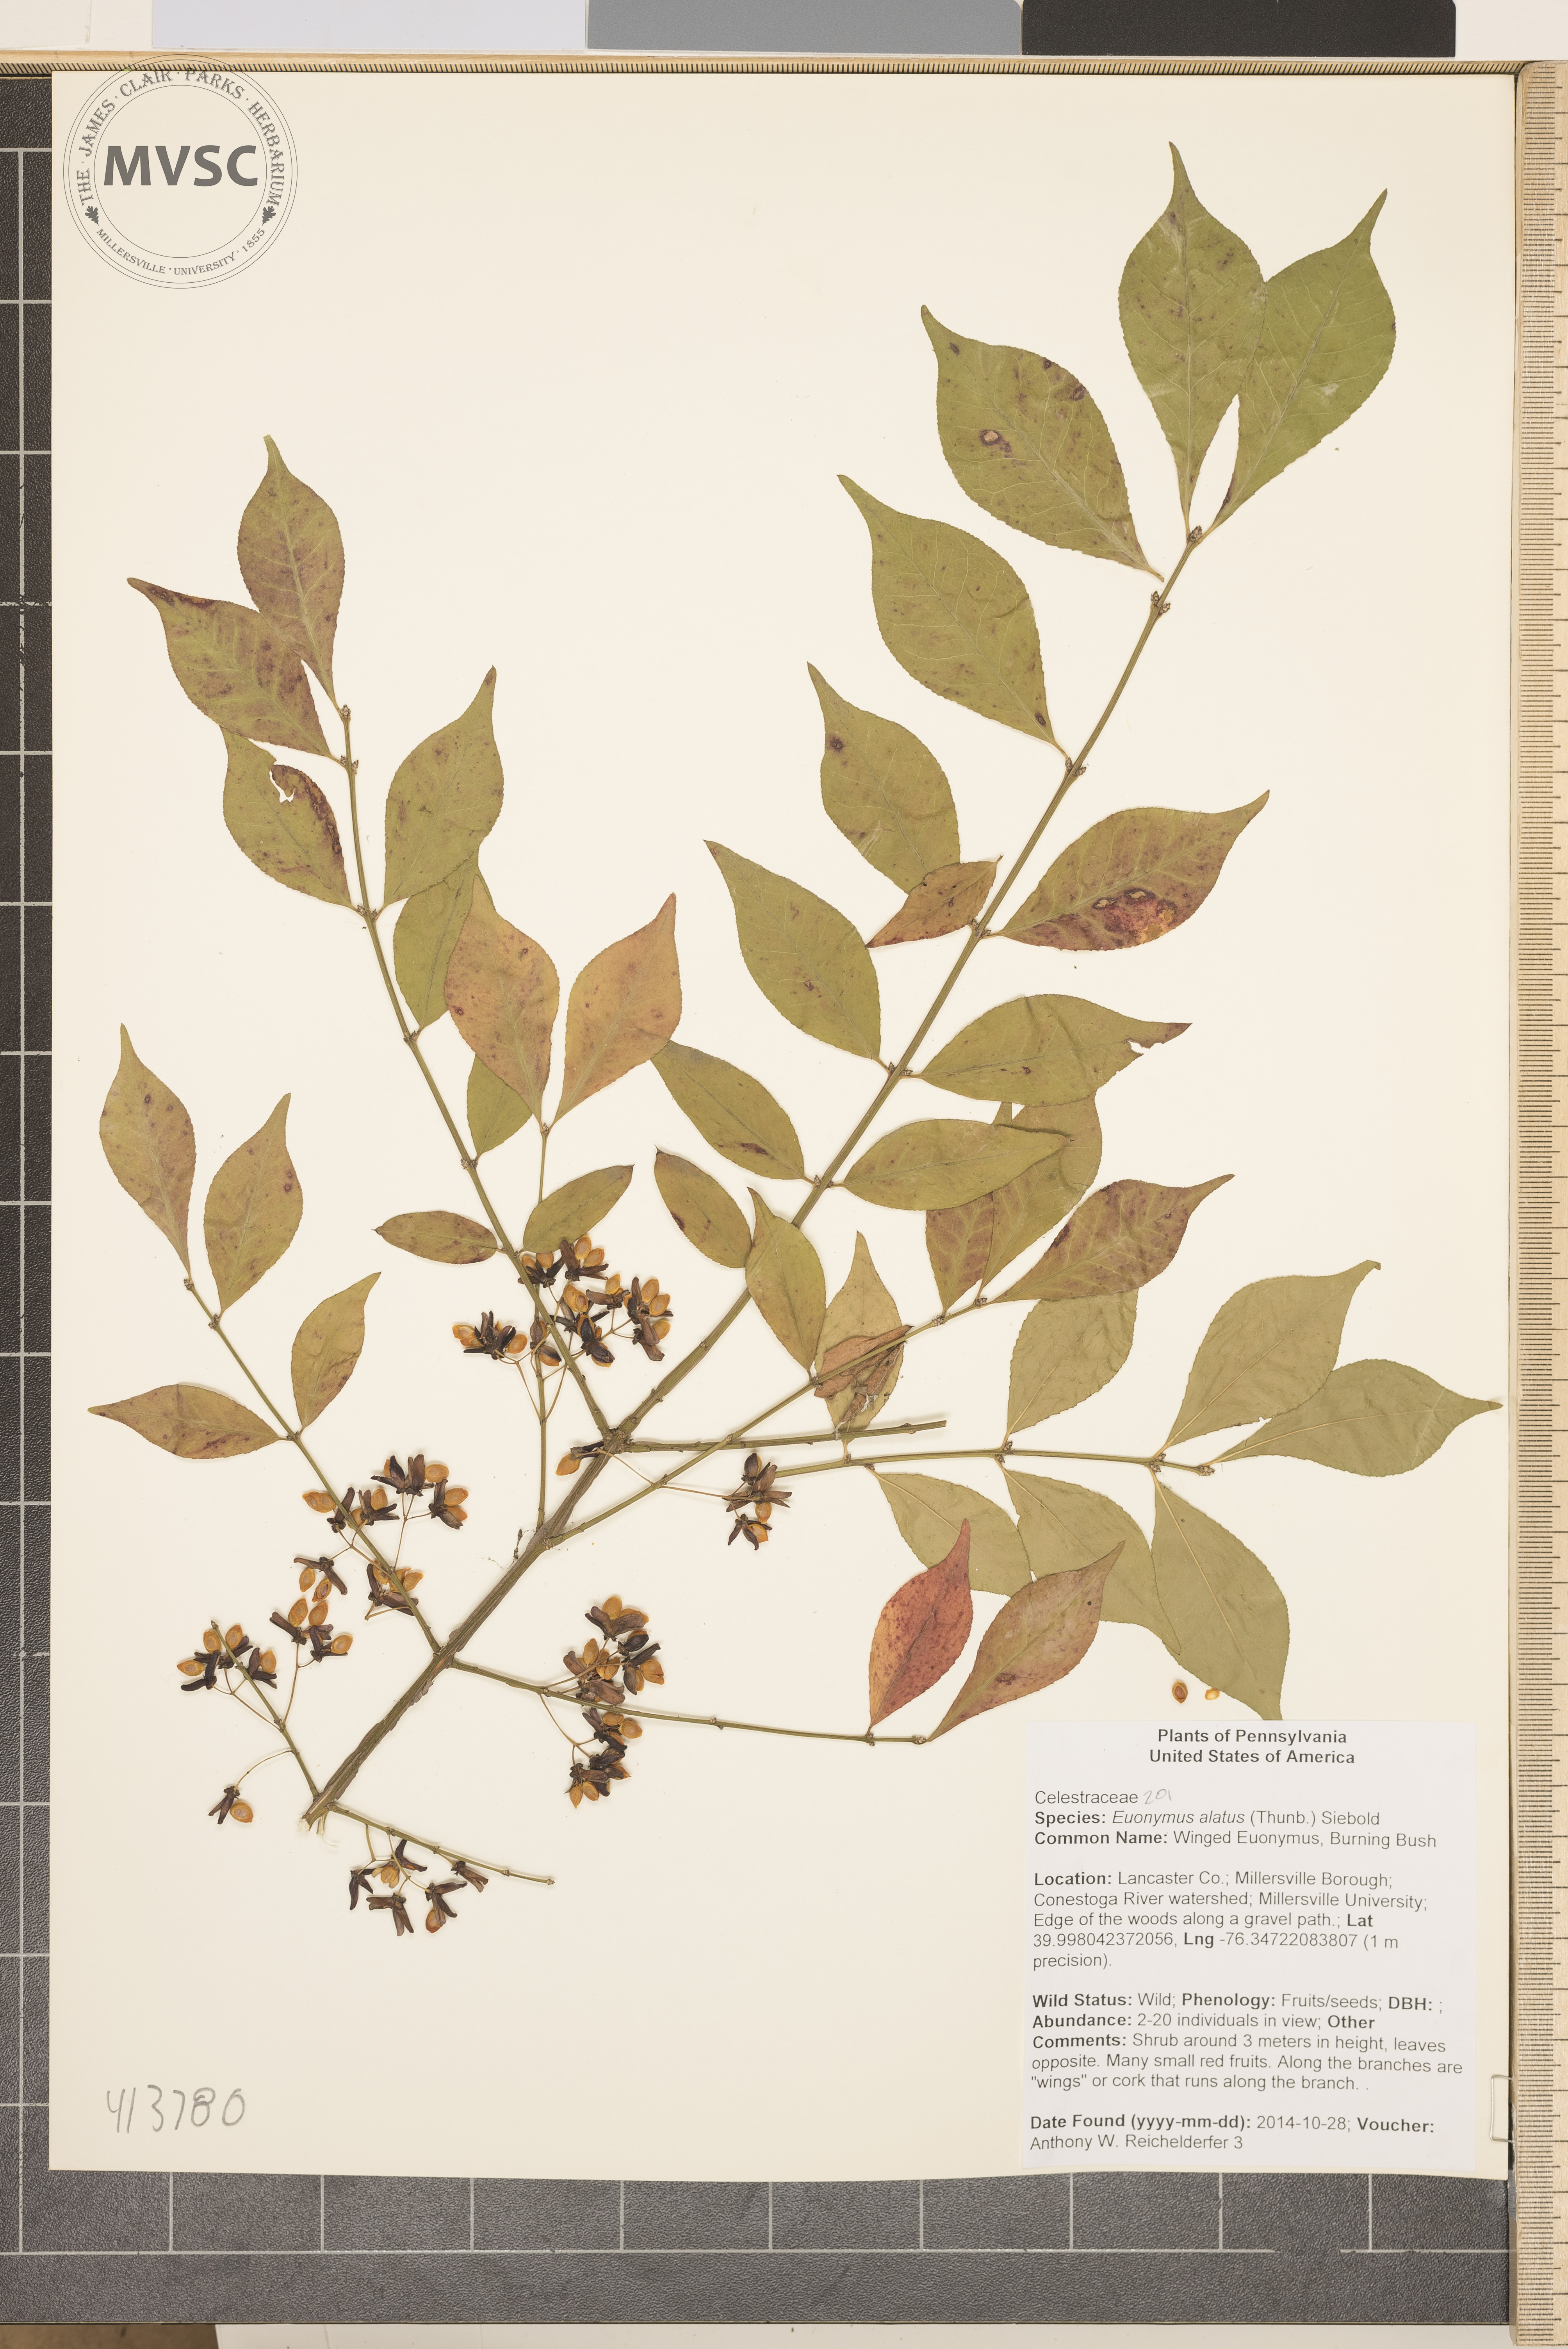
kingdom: Plantae
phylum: Tracheophyta
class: Magnoliopsida
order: Celastrales
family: Celastraceae
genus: Euonymus
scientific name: Euonymus alatus
